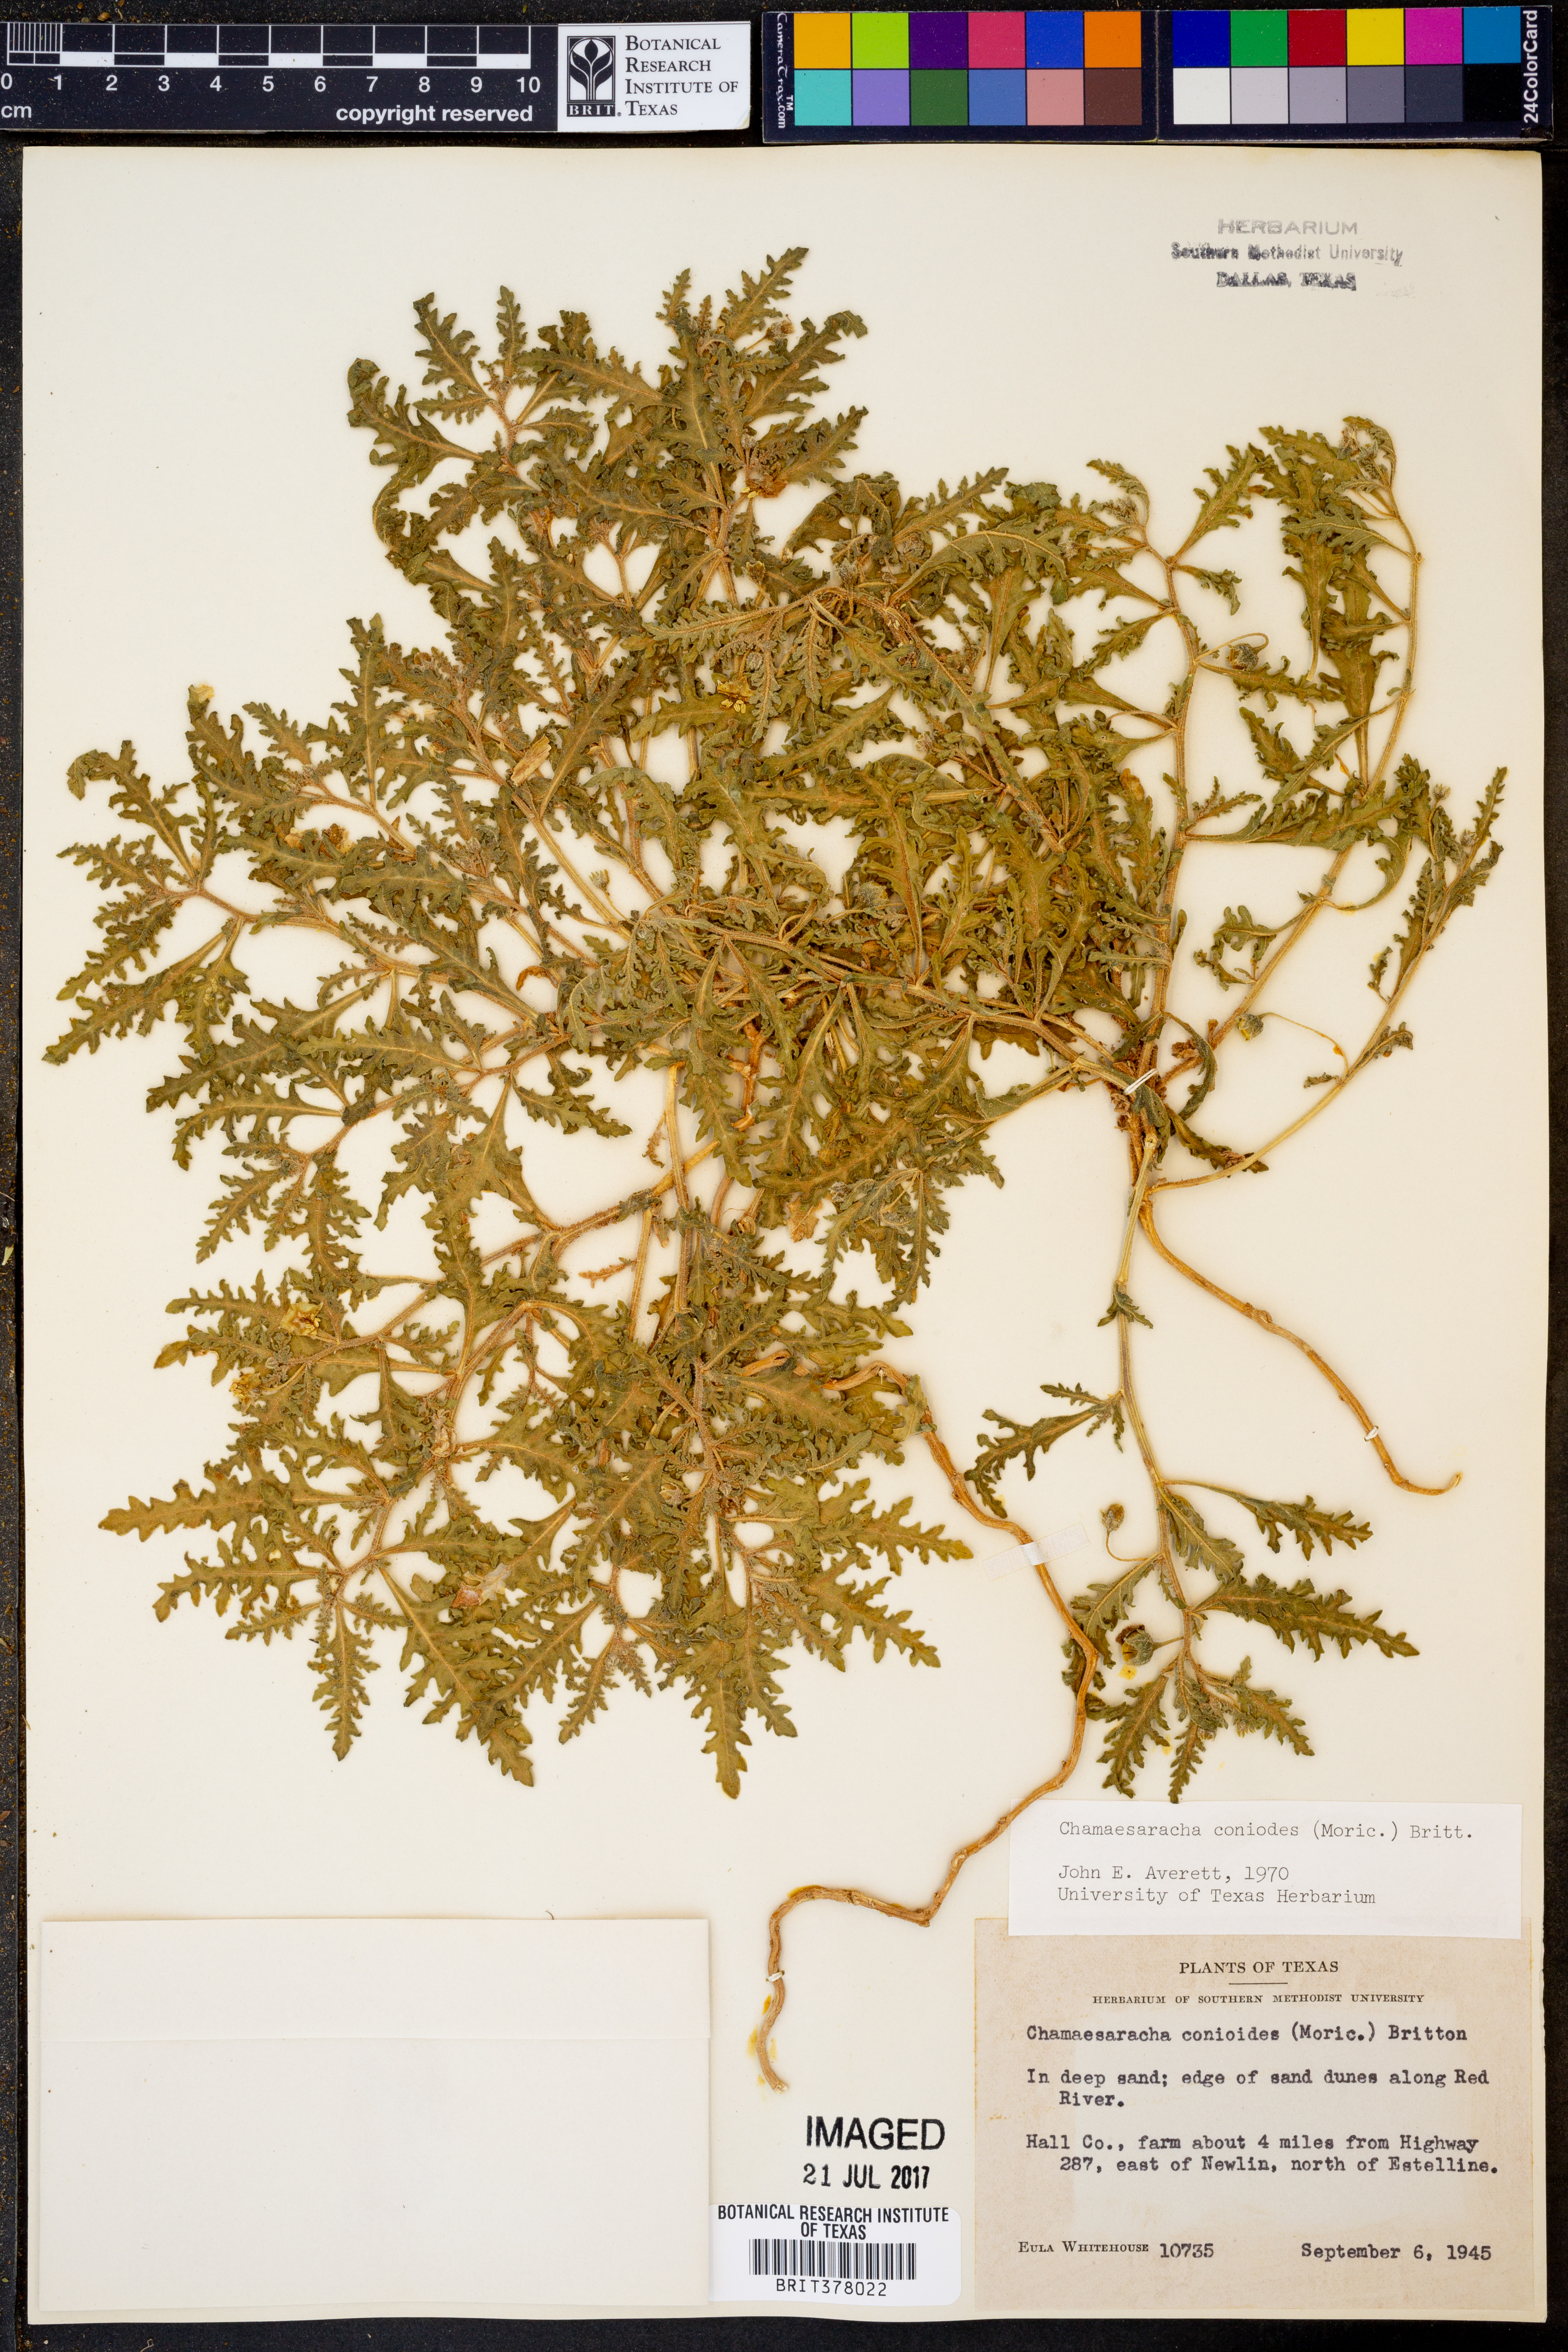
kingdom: Plantae
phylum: Tracheophyta
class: Magnoliopsida
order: Solanales
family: Solanaceae
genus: Chamaesaracha
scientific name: Chamaesaracha coniodes
